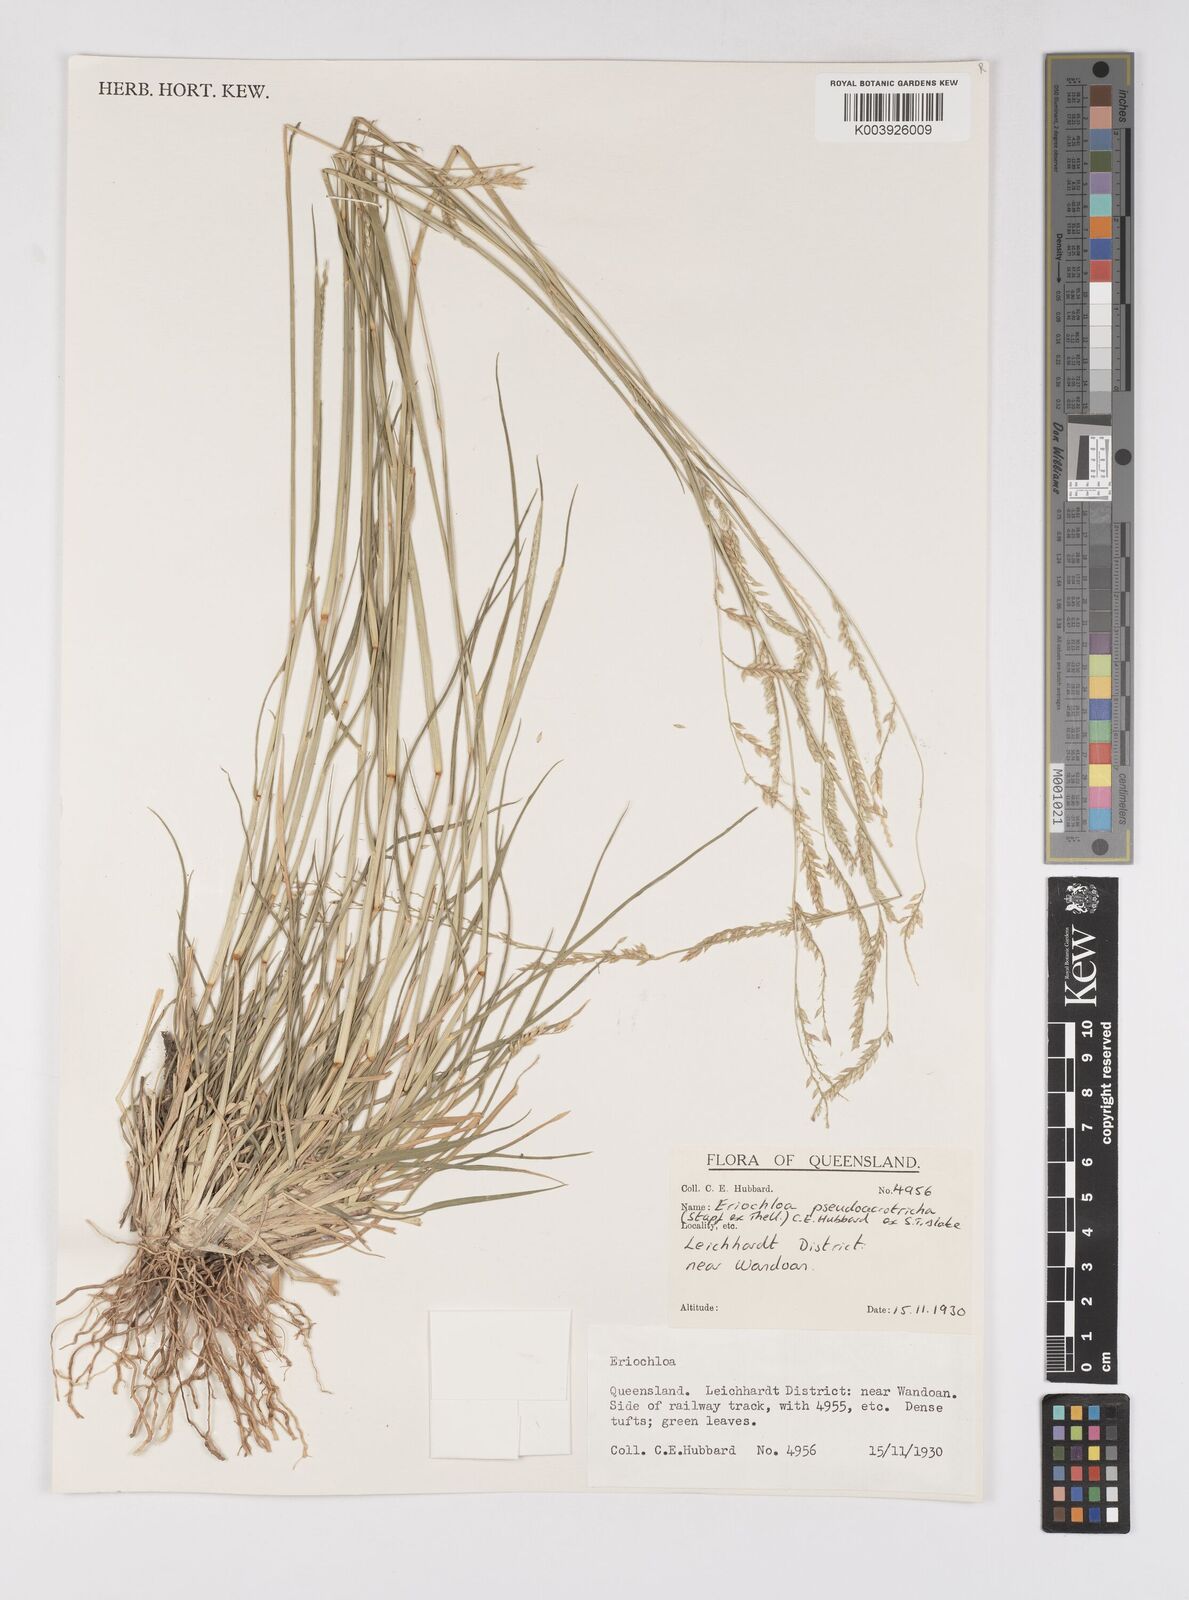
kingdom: Plantae
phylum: Tracheophyta
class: Liliopsida
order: Poales
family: Poaceae
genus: Eriochloa
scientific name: Eriochloa pseudoacrotricha
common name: Perennial cup-grass
